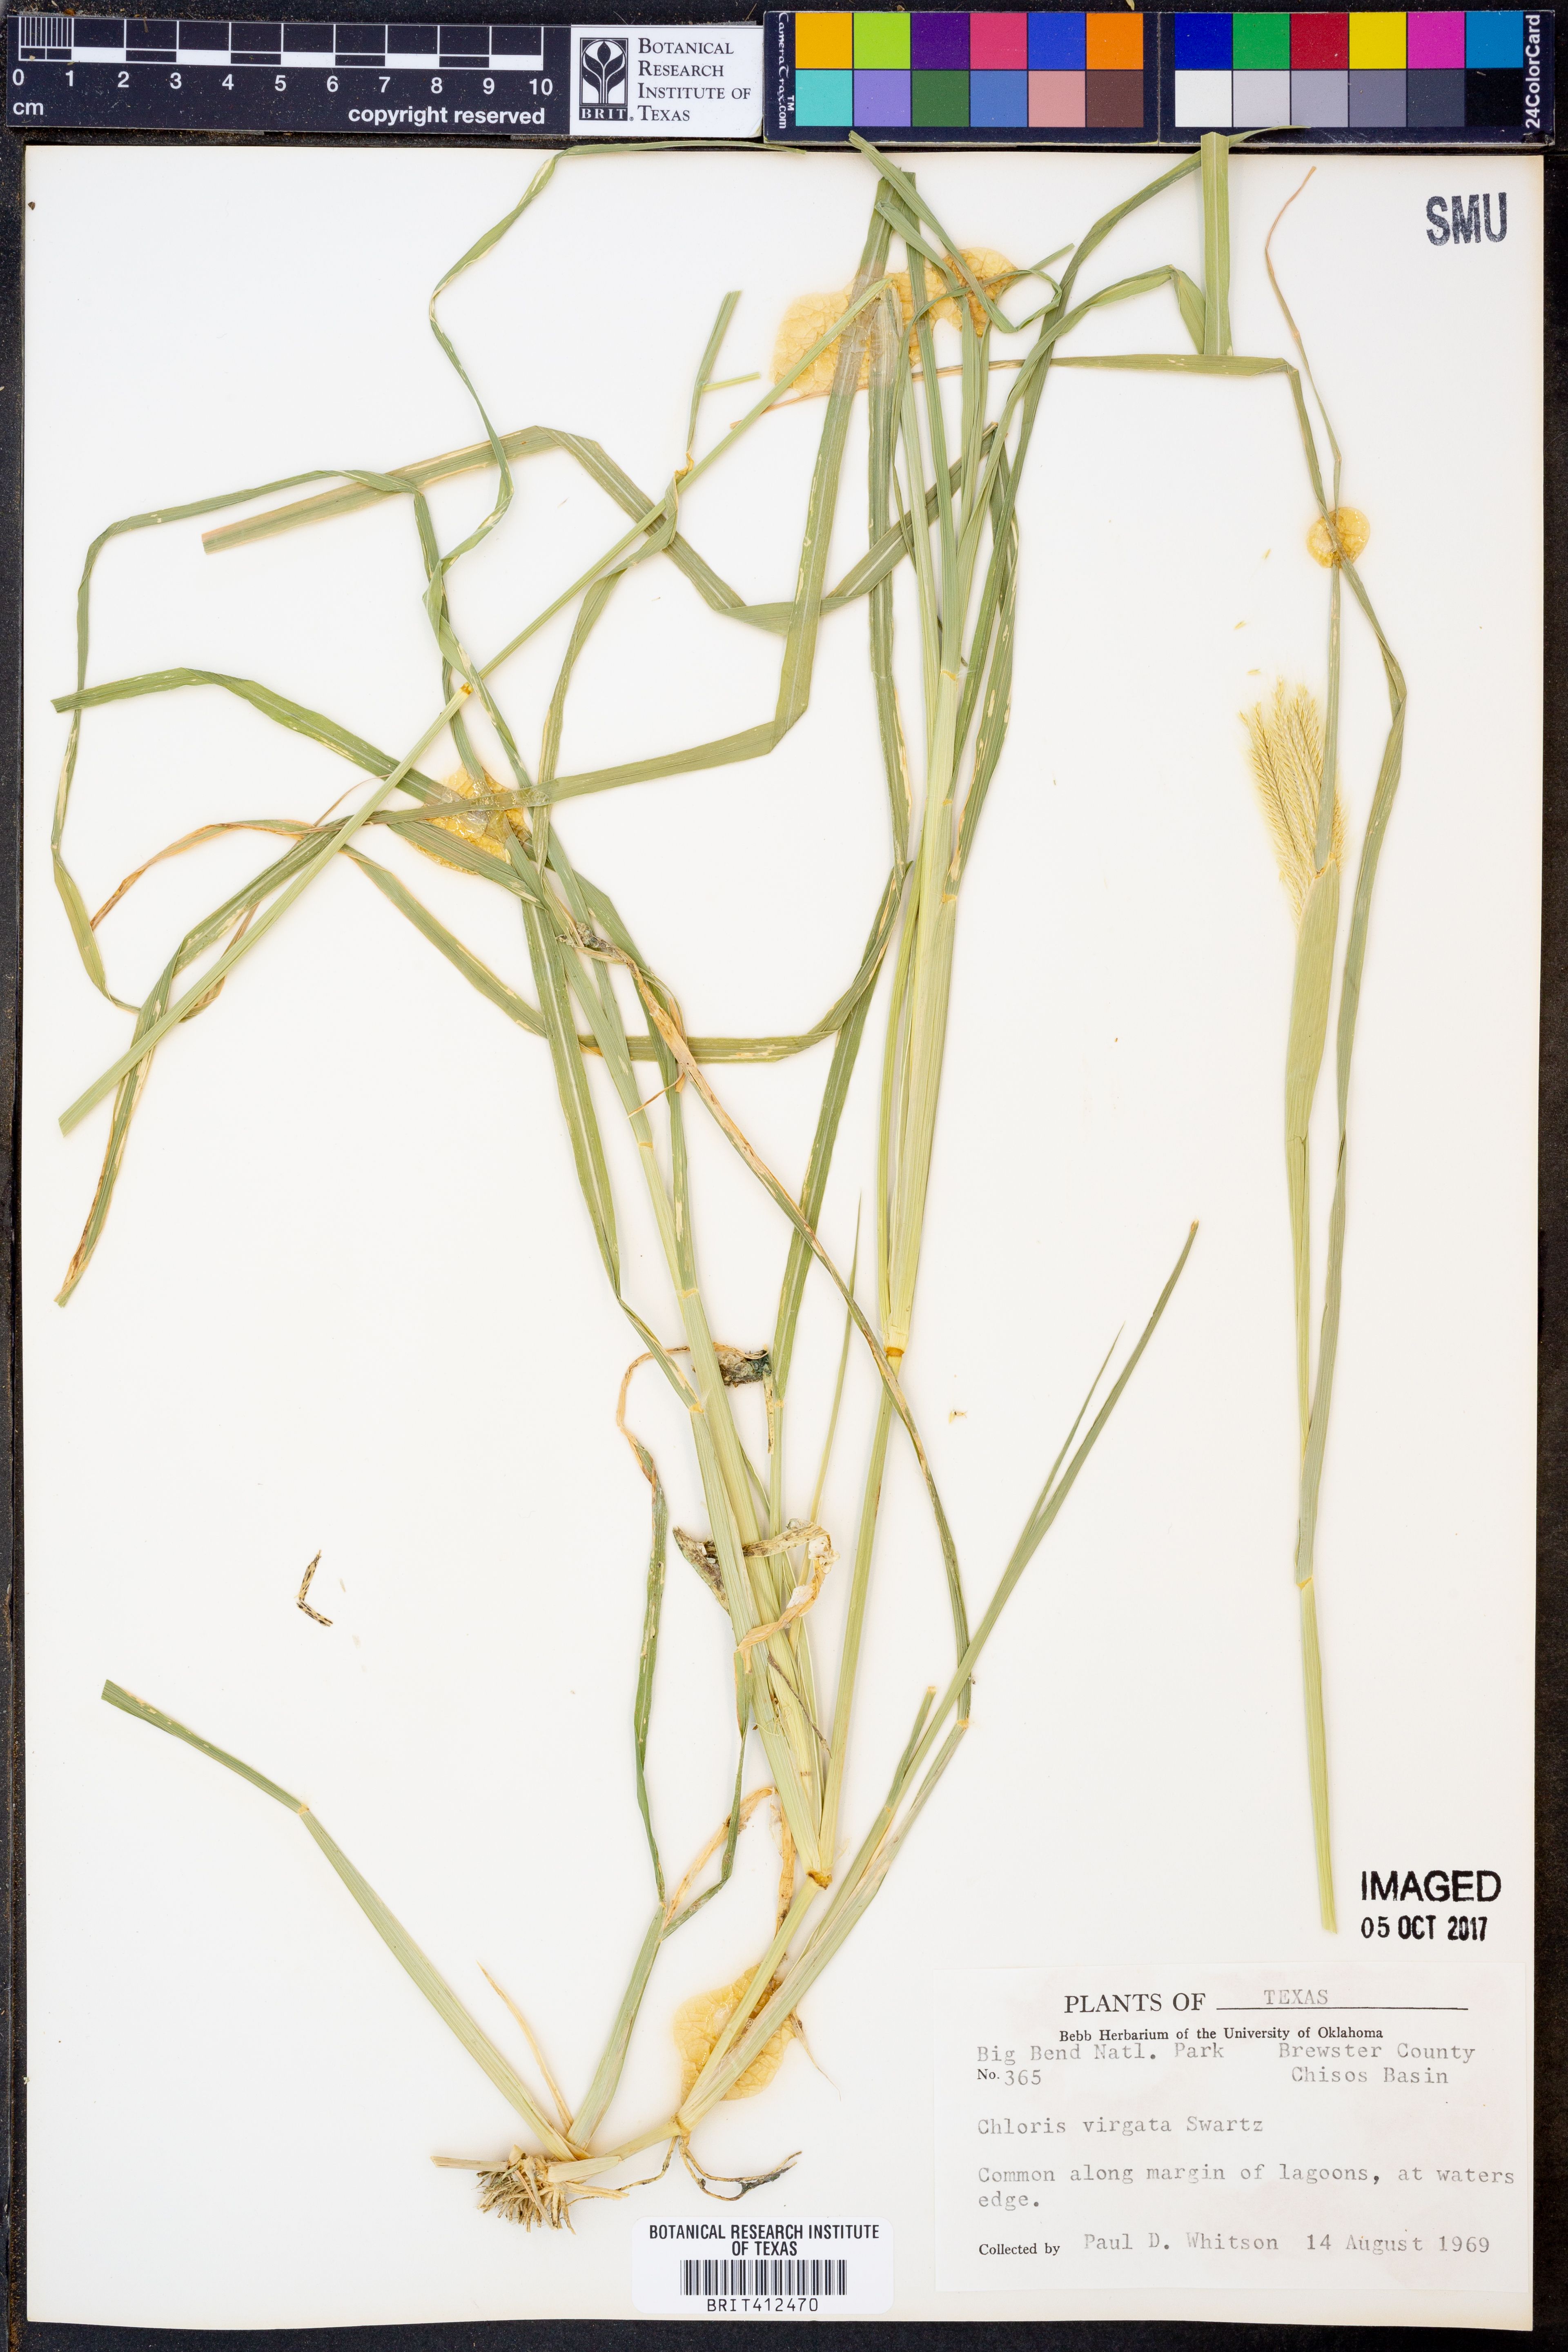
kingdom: Plantae
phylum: Tracheophyta
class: Liliopsida
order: Poales
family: Poaceae
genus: Chloris
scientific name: Chloris virgata
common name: Feathery rhodes-grass
